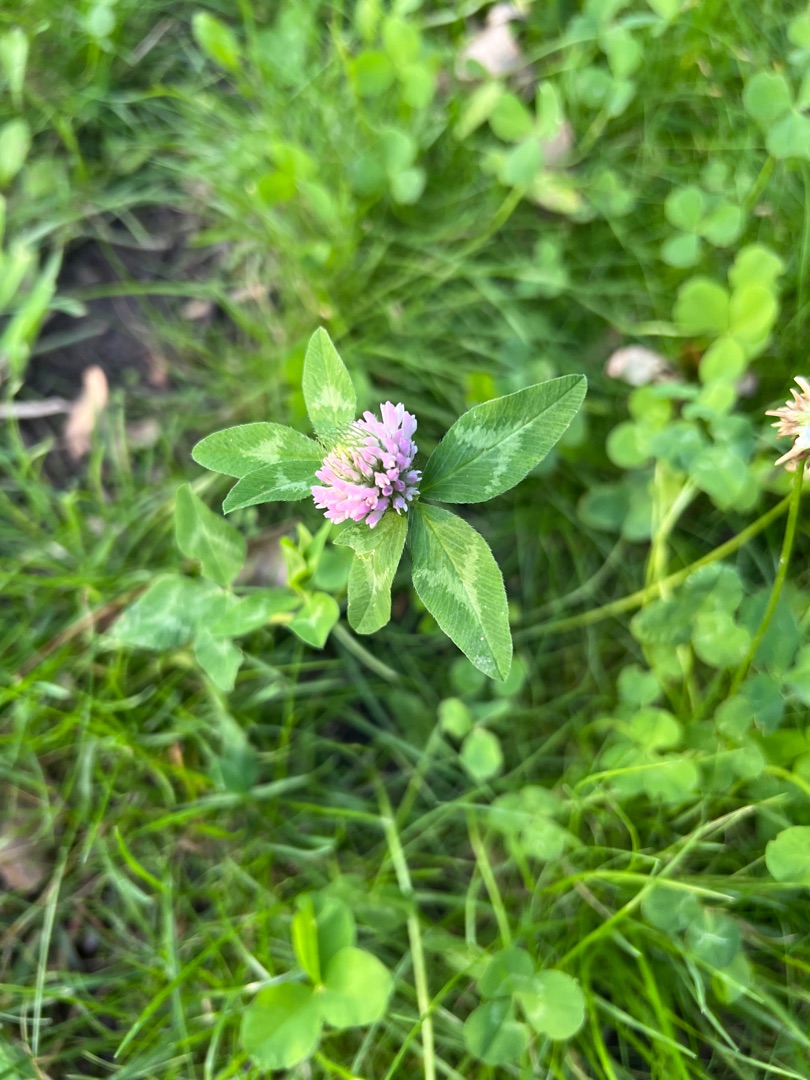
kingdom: Plantae
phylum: Tracheophyta
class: Magnoliopsida
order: Fabales
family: Fabaceae
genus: Trifolium
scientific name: Trifolium pratense
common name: Rød-kløver
